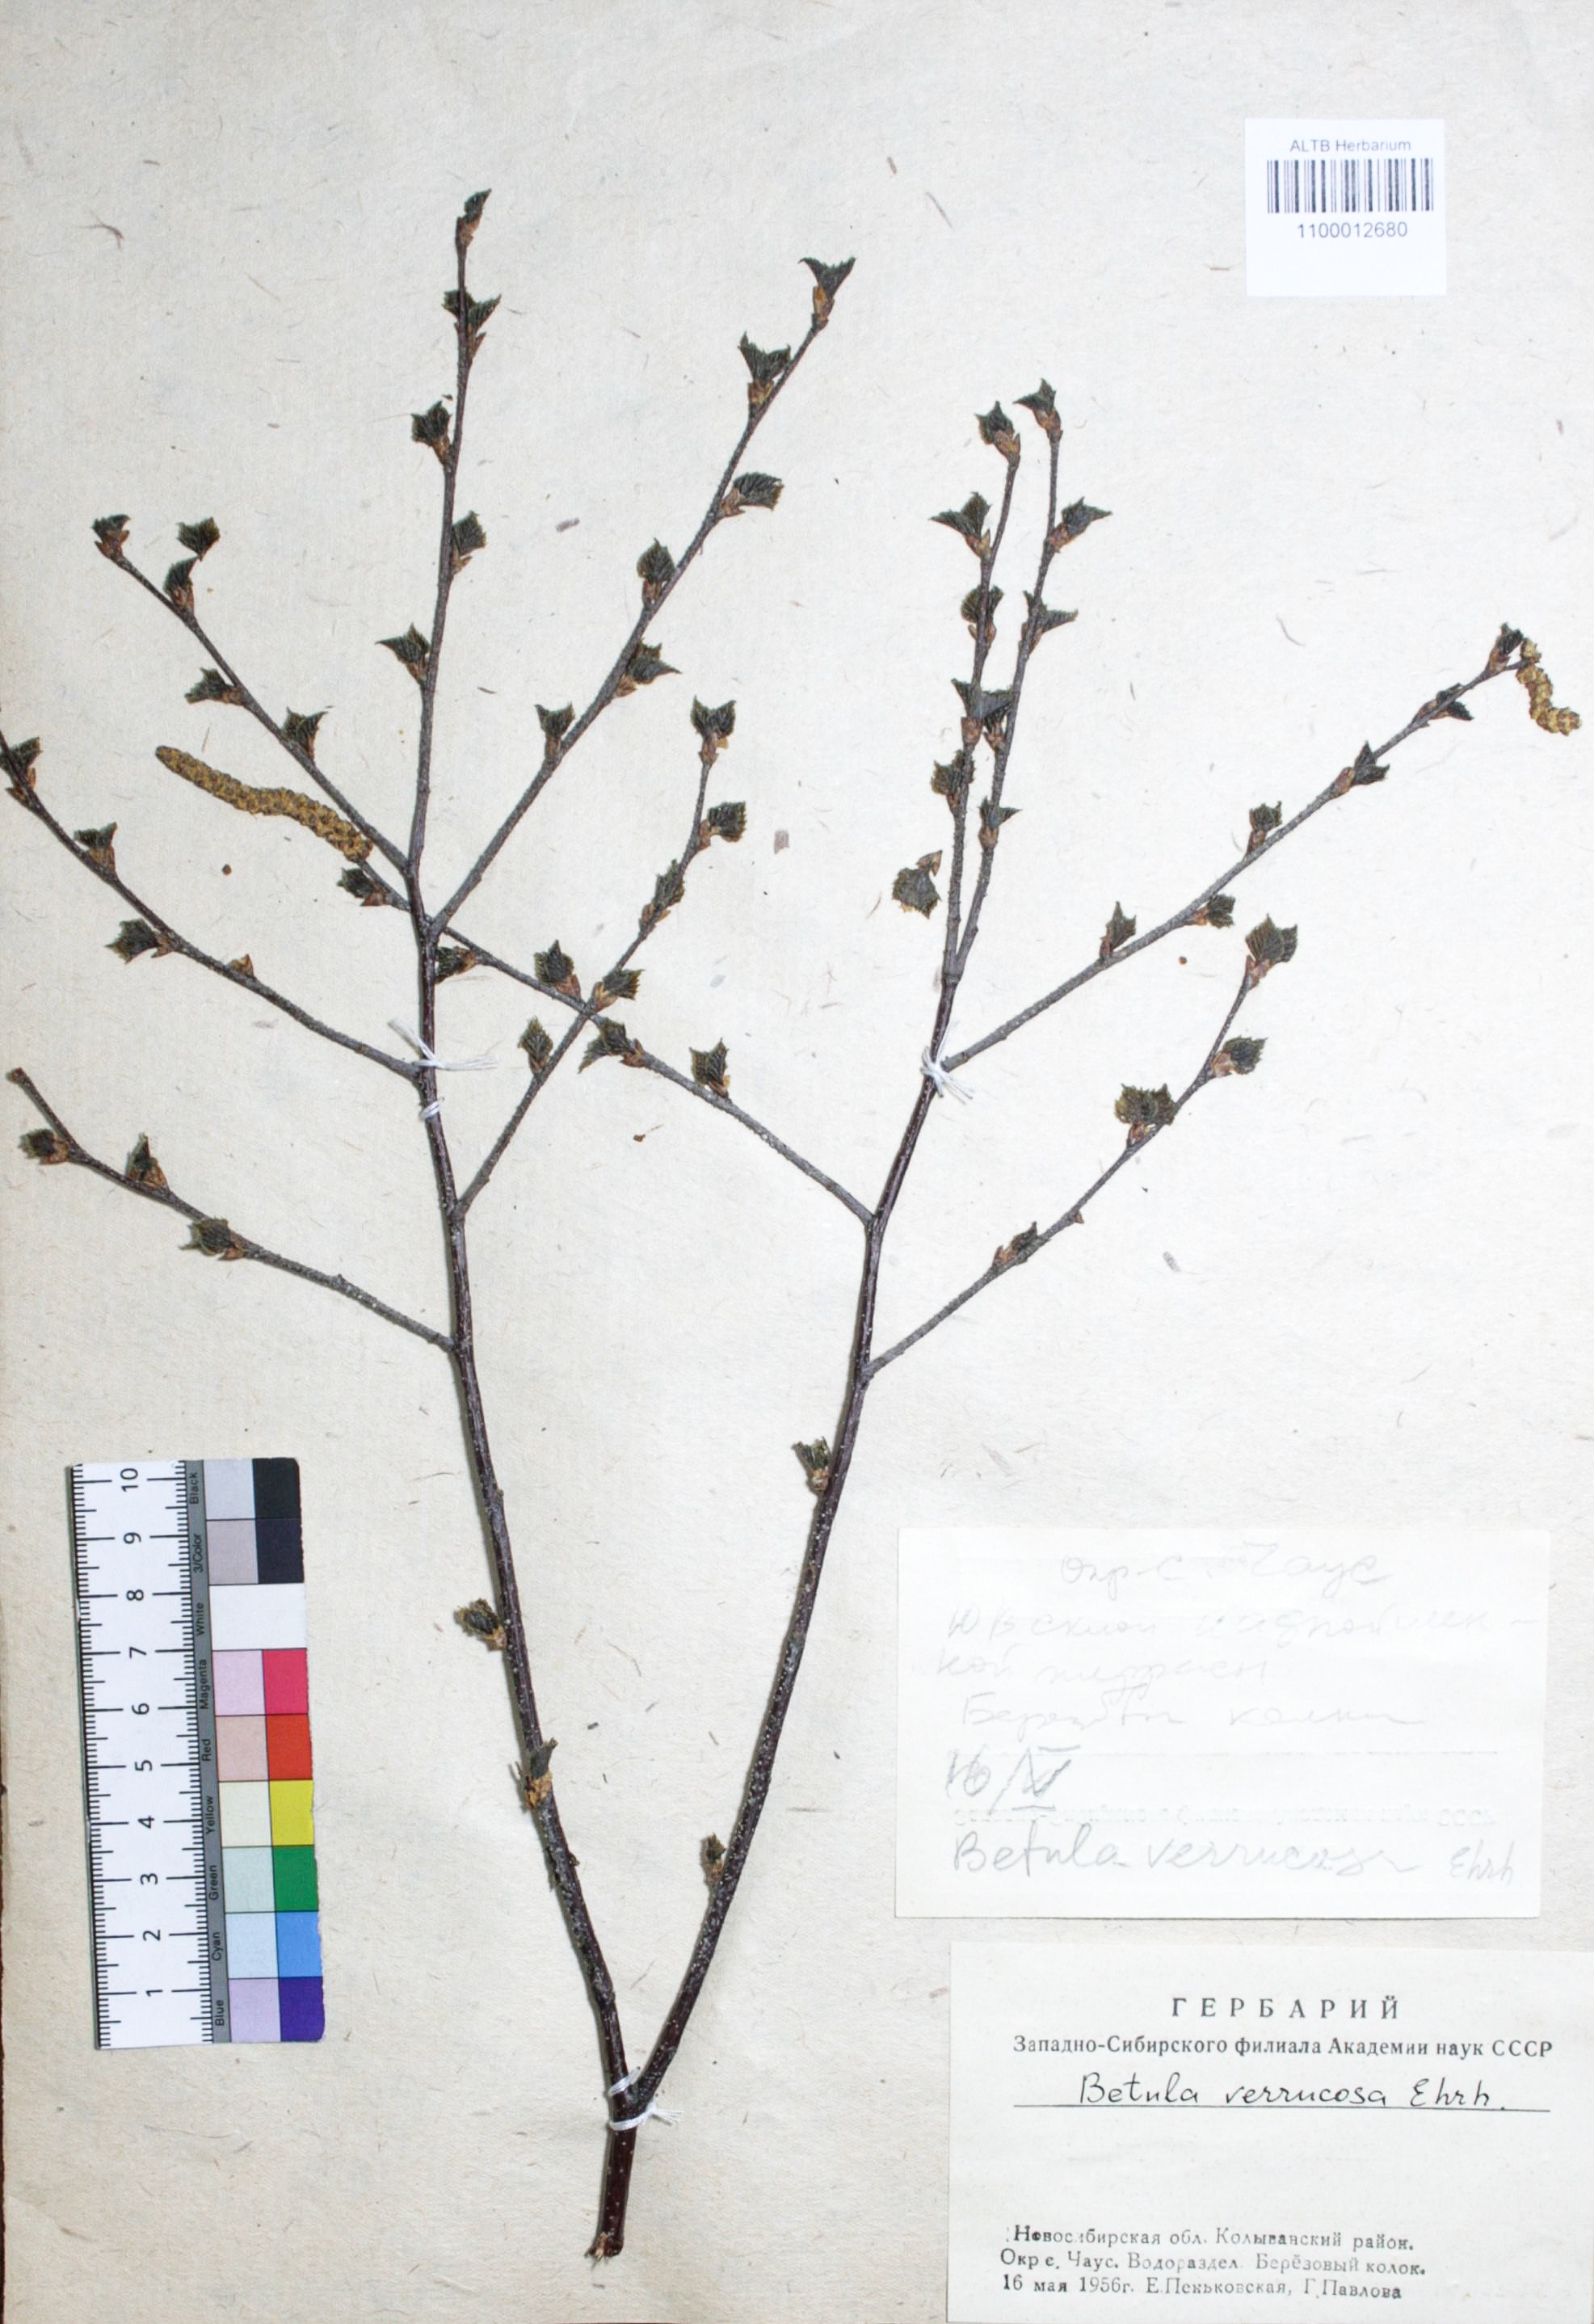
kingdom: Plantae
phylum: Tracheophyta
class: Magnoliopsida
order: Fagales
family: Betulaceae
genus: Betula
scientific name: Betula pendula
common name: Silver birch
